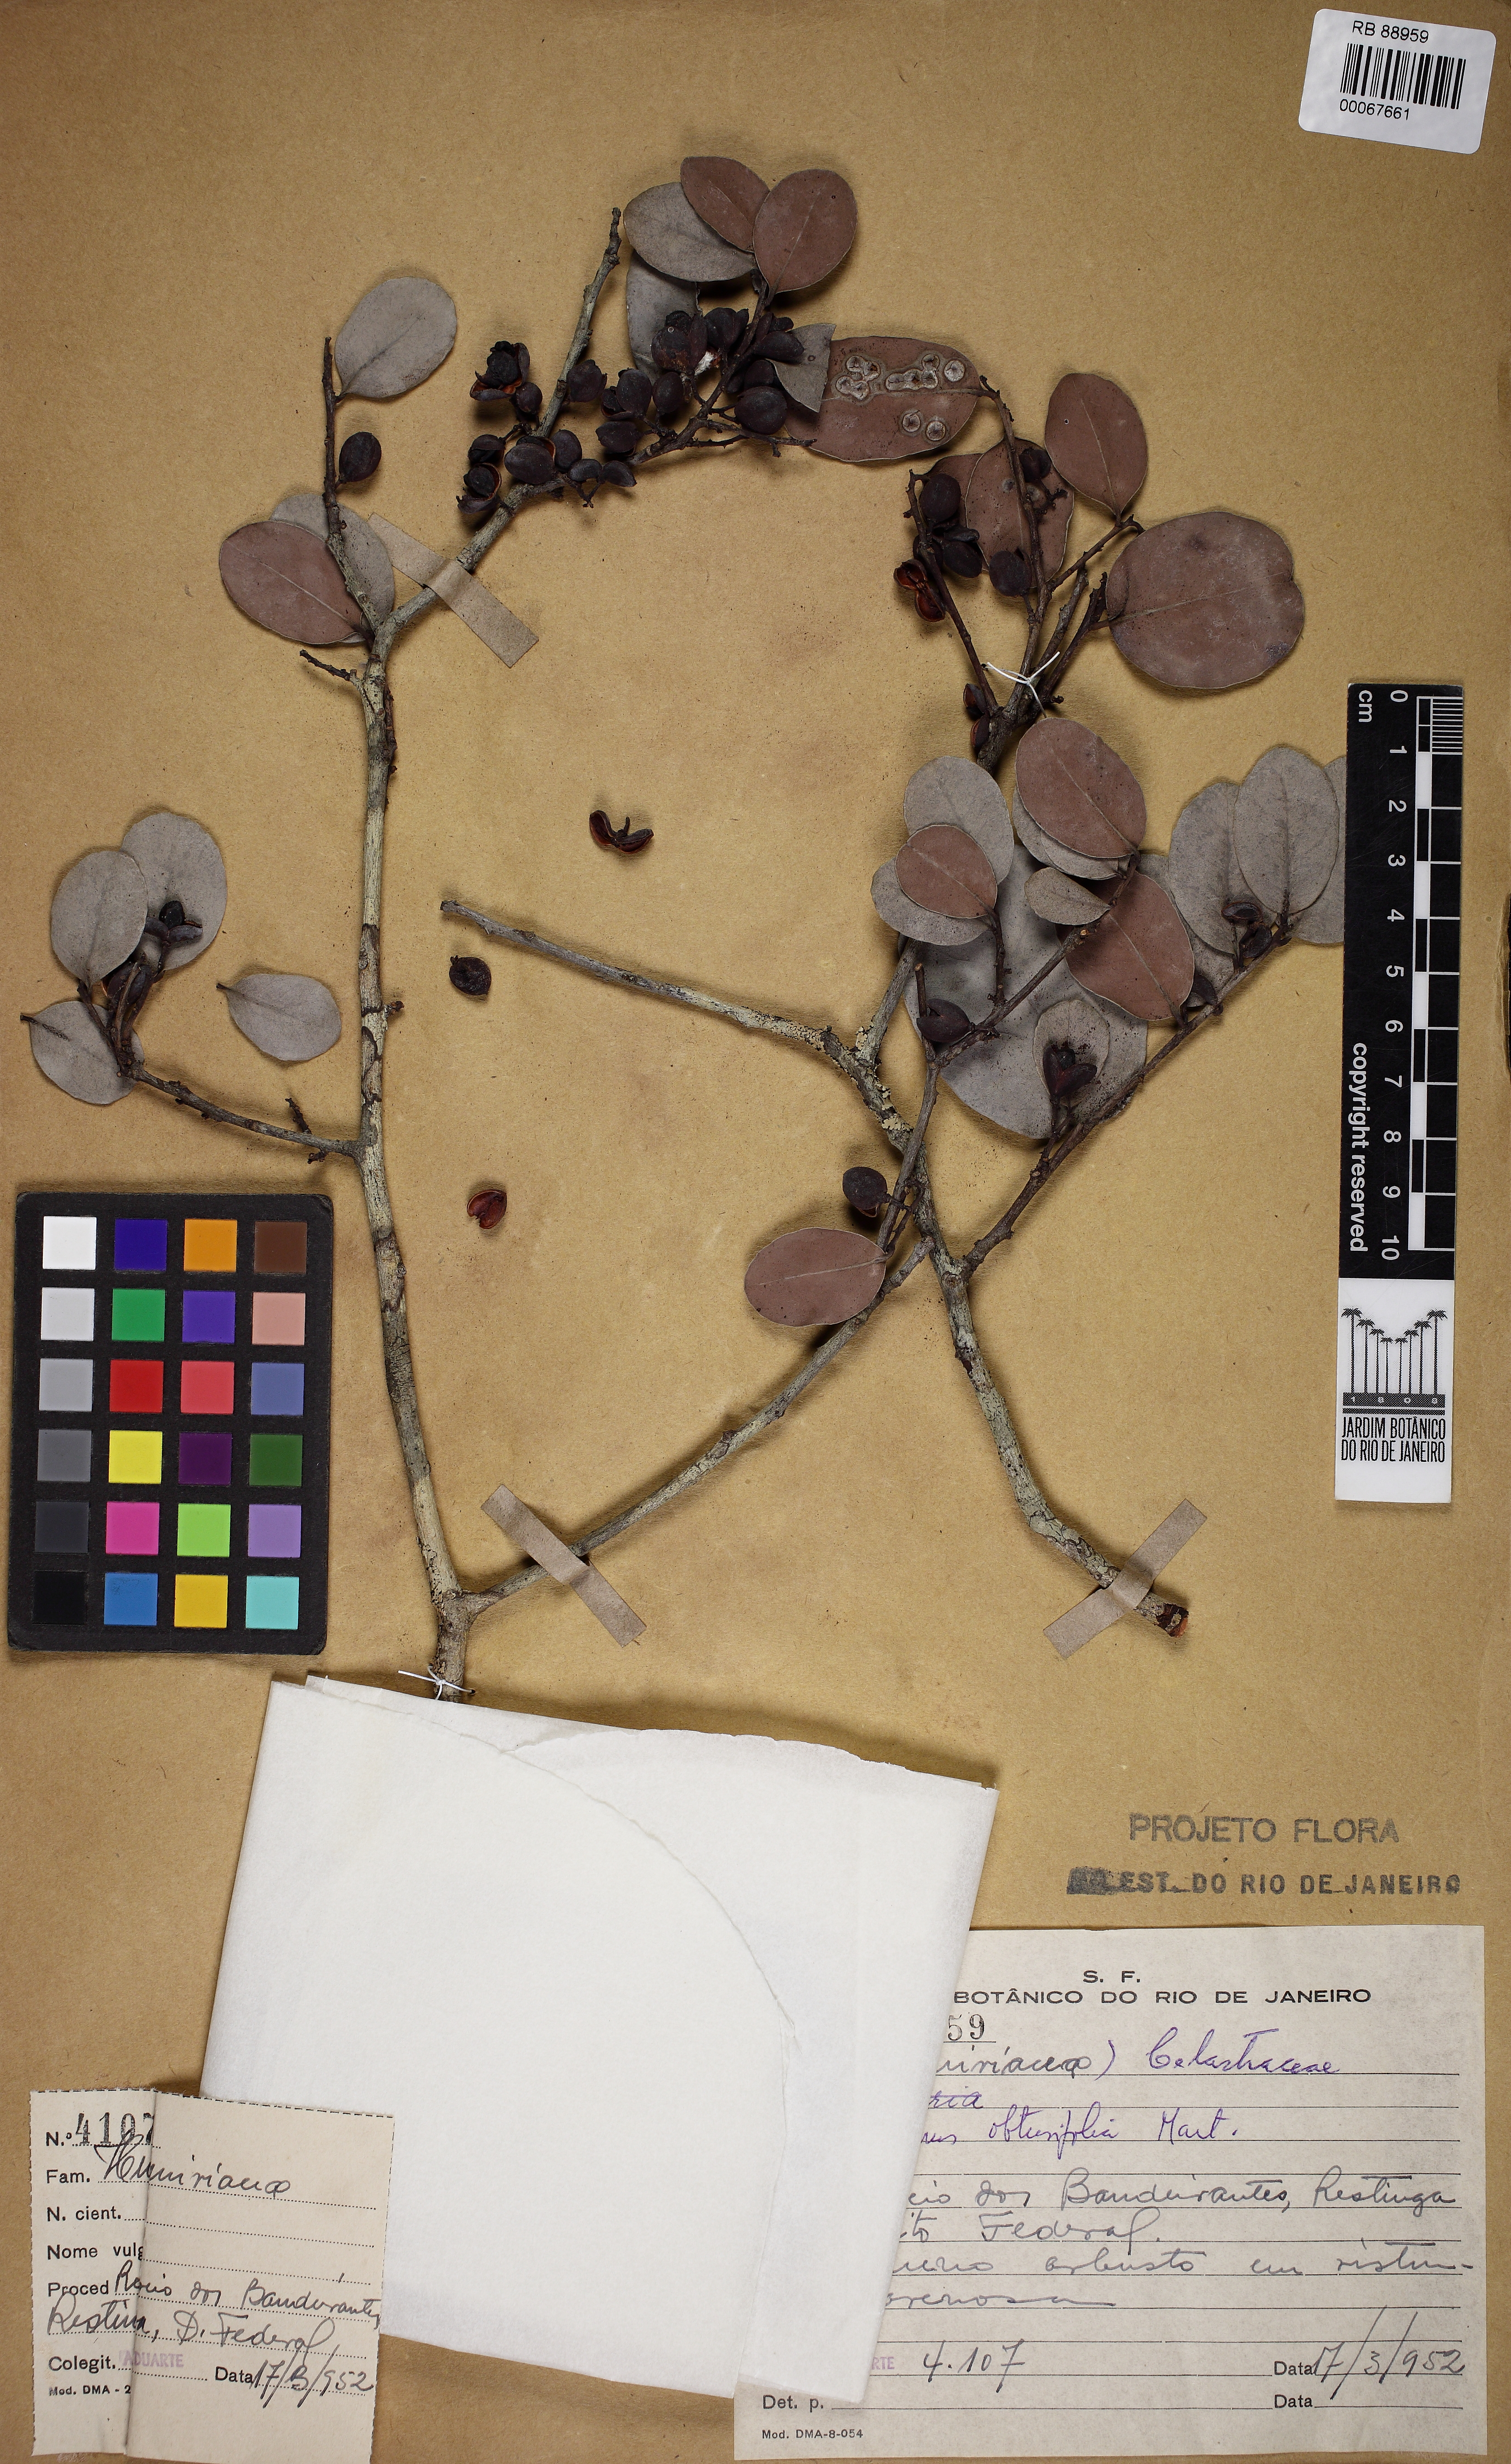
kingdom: Plantae
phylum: Tracheophyta
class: Magnoliopsida
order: Celastrales
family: Celastraceae
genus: Monteverdia
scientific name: Monteverdia obtusifolia
